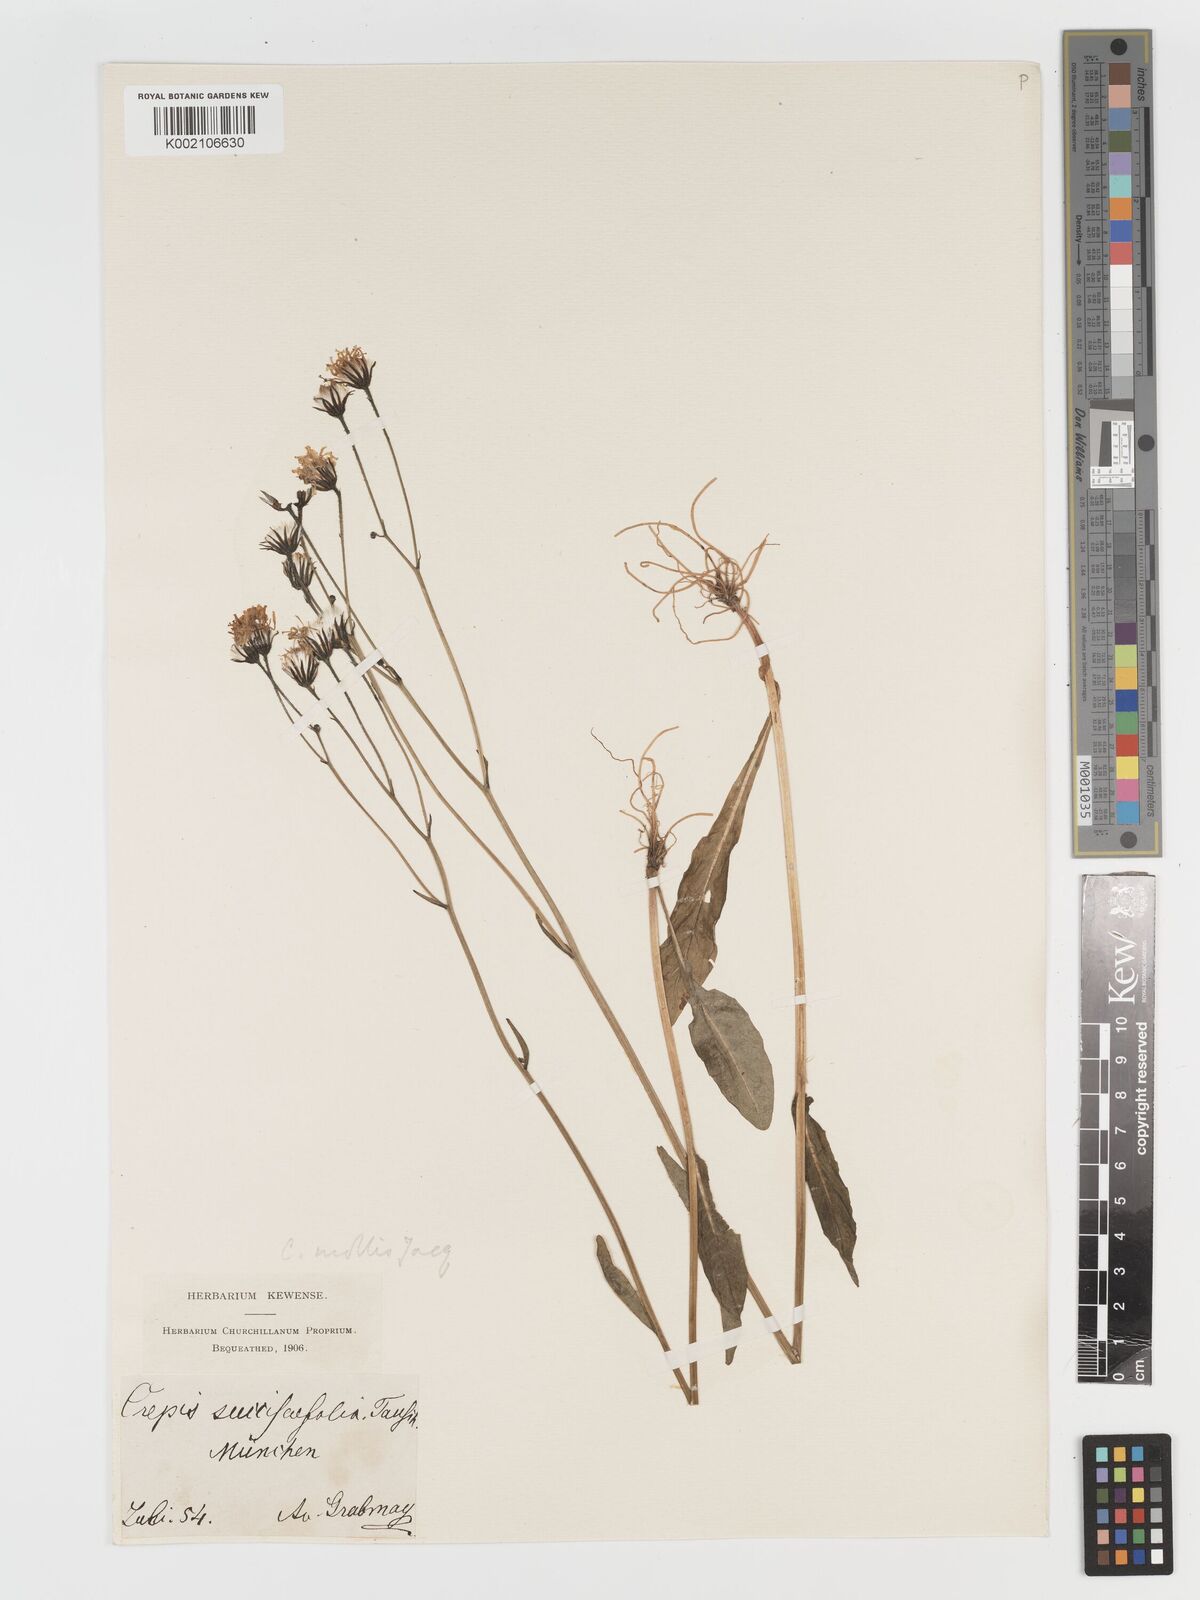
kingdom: Plantae
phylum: Tracheophyta
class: Magnoliopsida
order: Asterales
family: Asteraceae
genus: Crepis
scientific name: Crepis mollis
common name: Northern hawk's-beard
